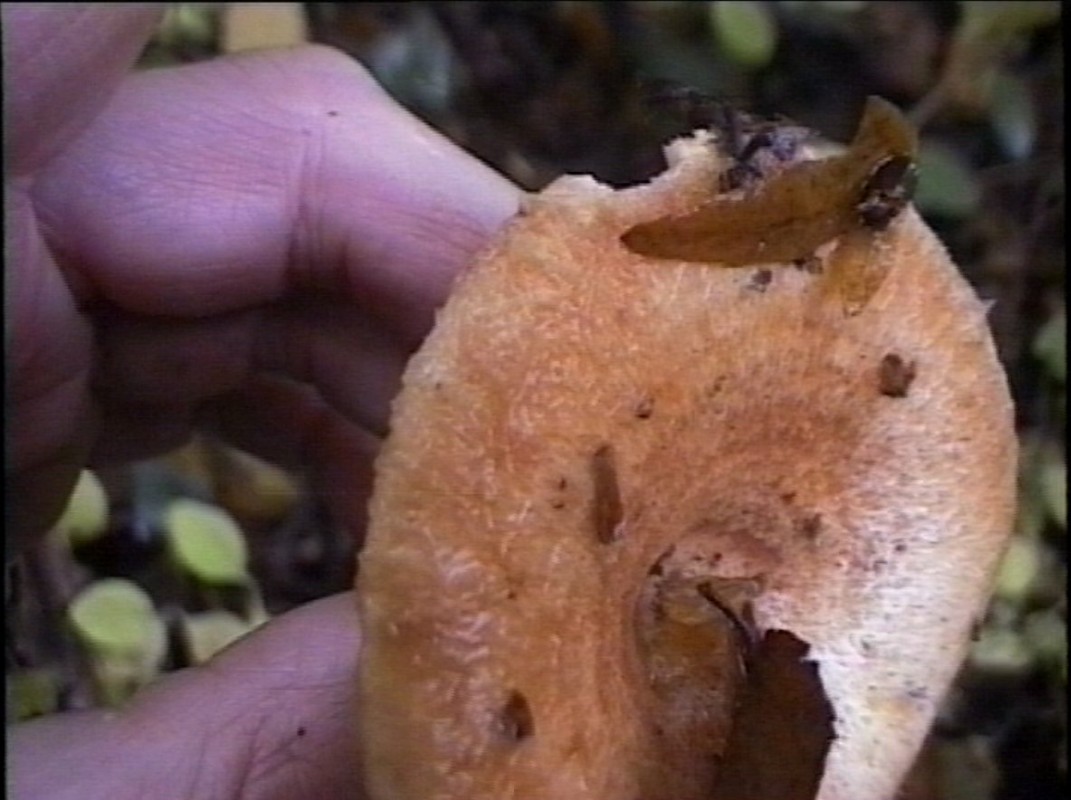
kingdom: Fungi
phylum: Basidiomycota
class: Agaricomycetes
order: Russulales
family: Russulaceae
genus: Lactarius
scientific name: Lactarius torminosus
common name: skægget mælkehat
